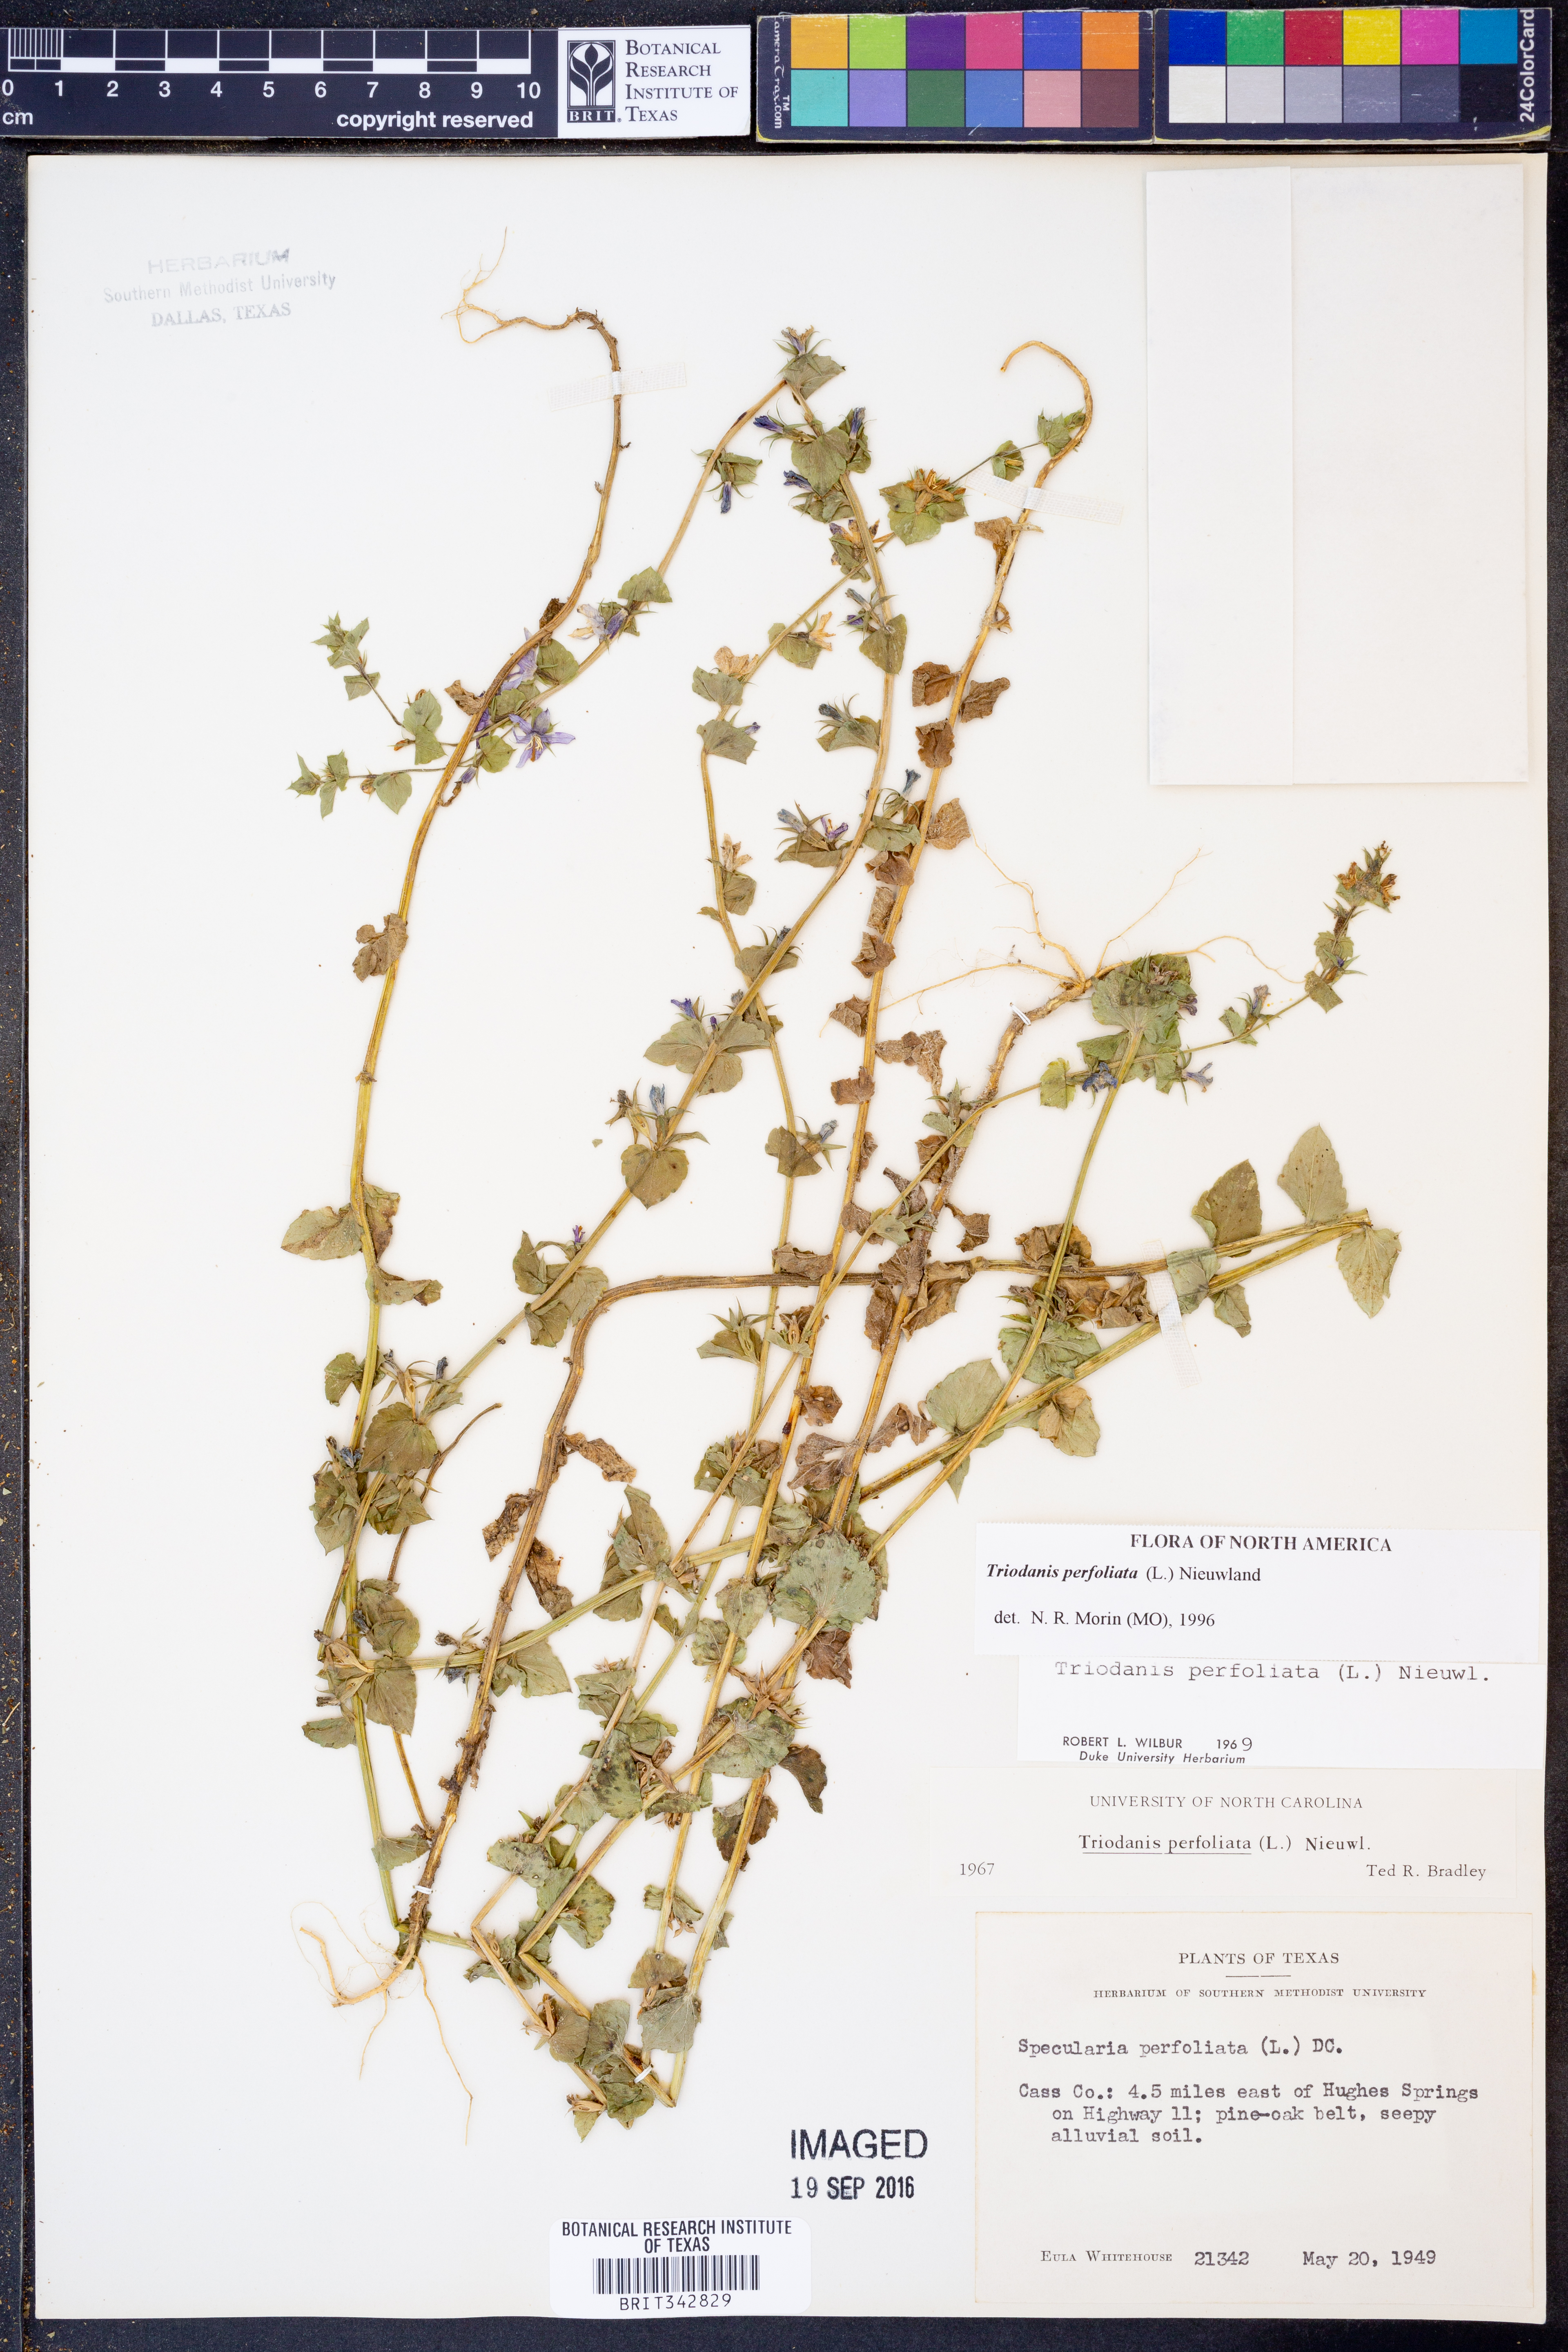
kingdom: Plantae
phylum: Tracheophyta
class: Magnoliopsida
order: Asterales
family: Campanulaceae
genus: Triodanis
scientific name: Triodanis perfoliata
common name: Clasping venus' looking-glass
